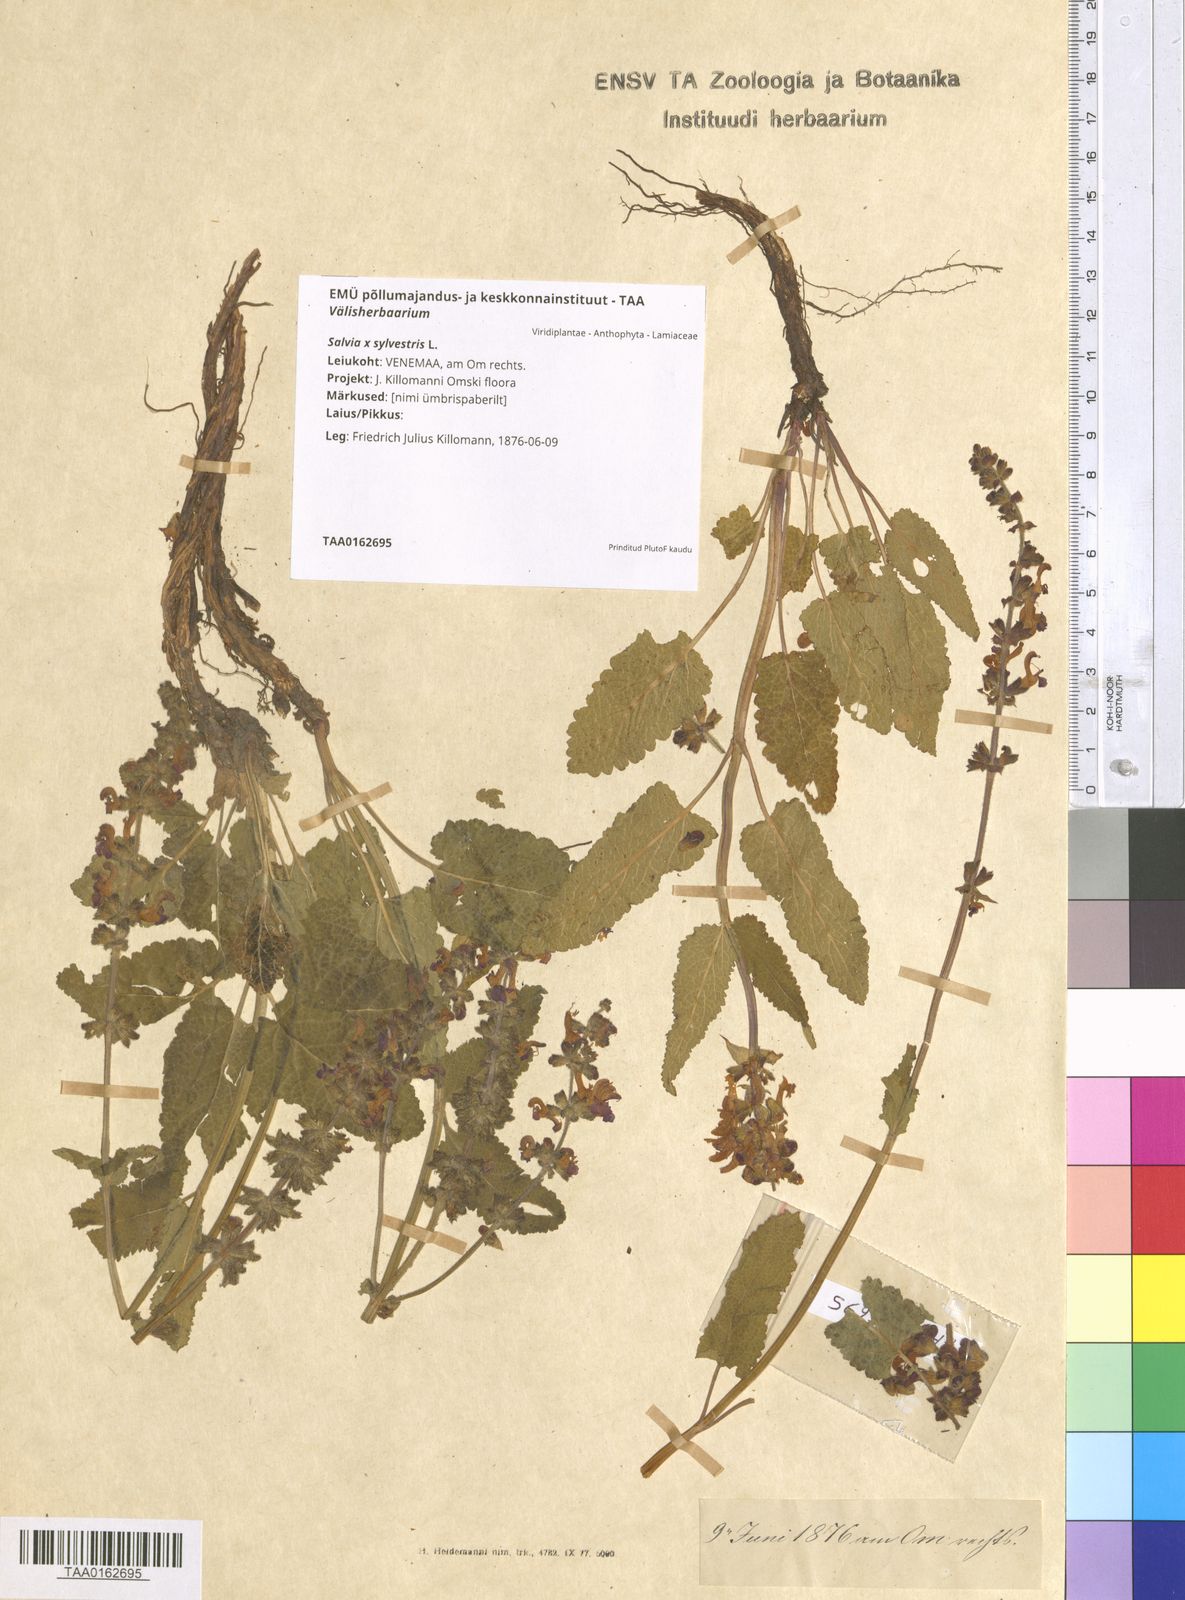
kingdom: Plantae
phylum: Tracheophyta
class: Magnoliopsida
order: Lamiales
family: Lamiaceae
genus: Salvia
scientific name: Salvia sylvestris
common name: Woodland sage
